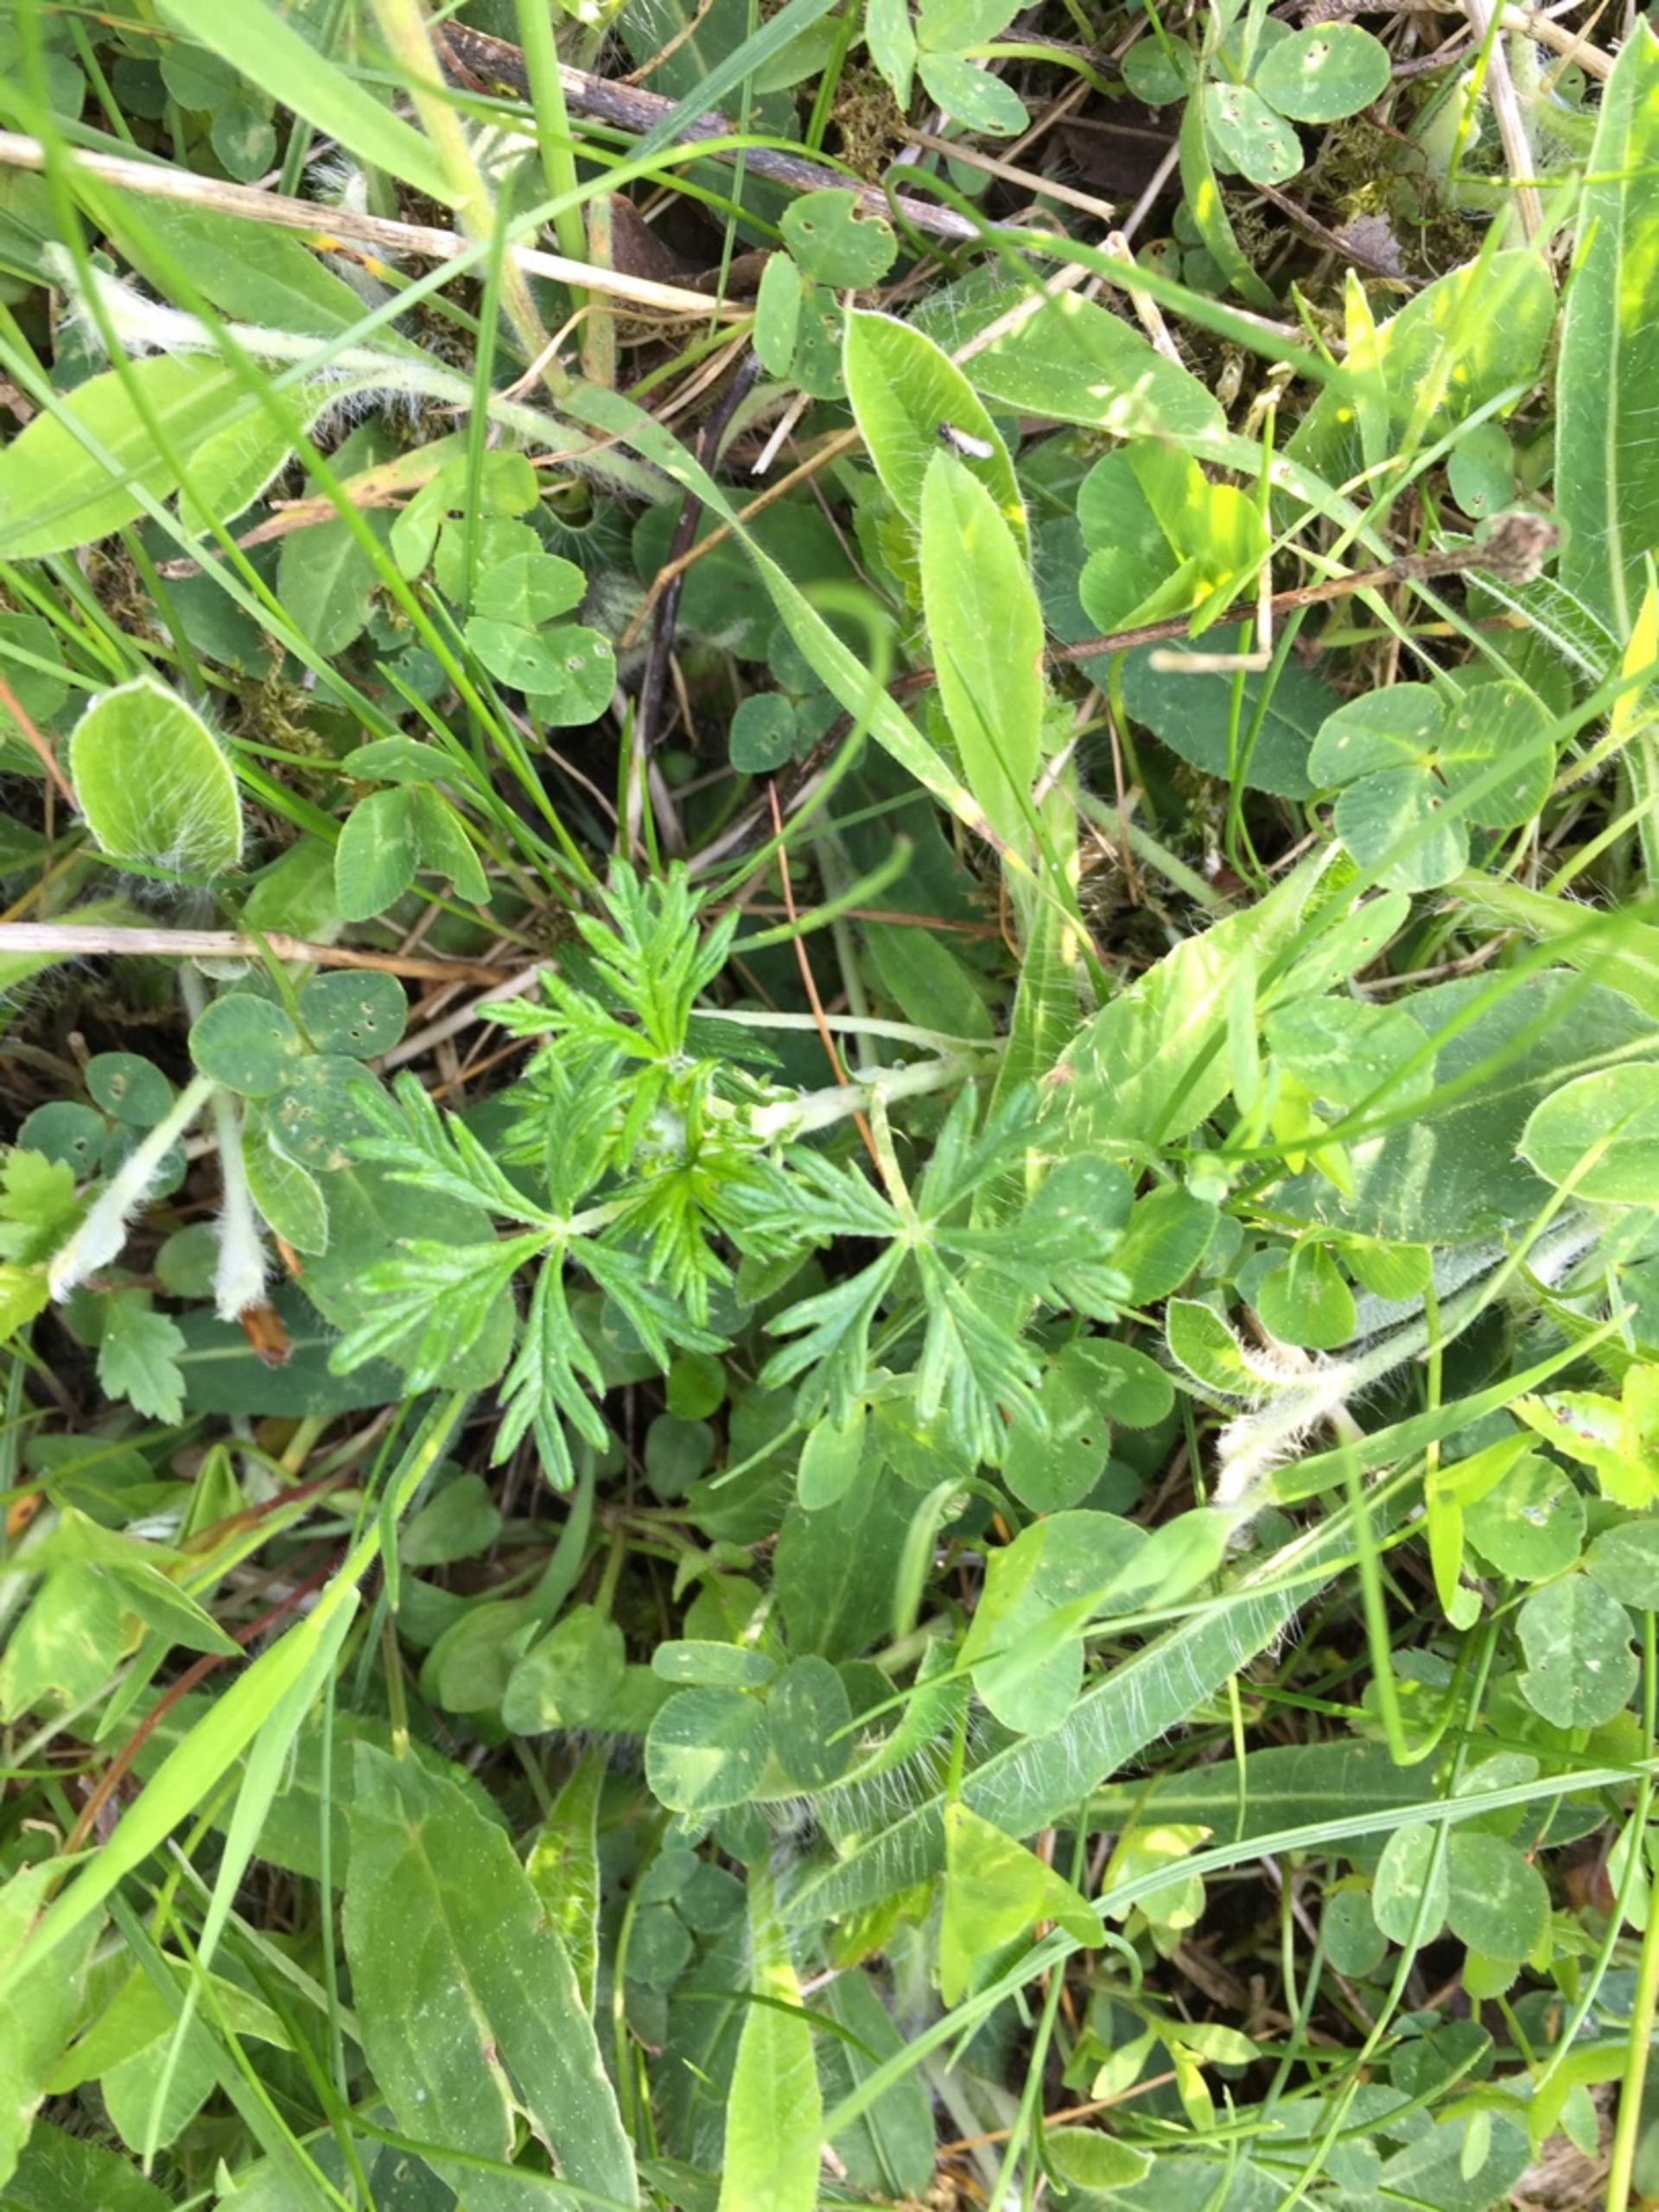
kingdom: Plantae
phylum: Tracheophyta
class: Magnoliopsida
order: Rosales
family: Rosaceae
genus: Potentilla
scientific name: Potentilla argentea
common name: Sølv-potentil
